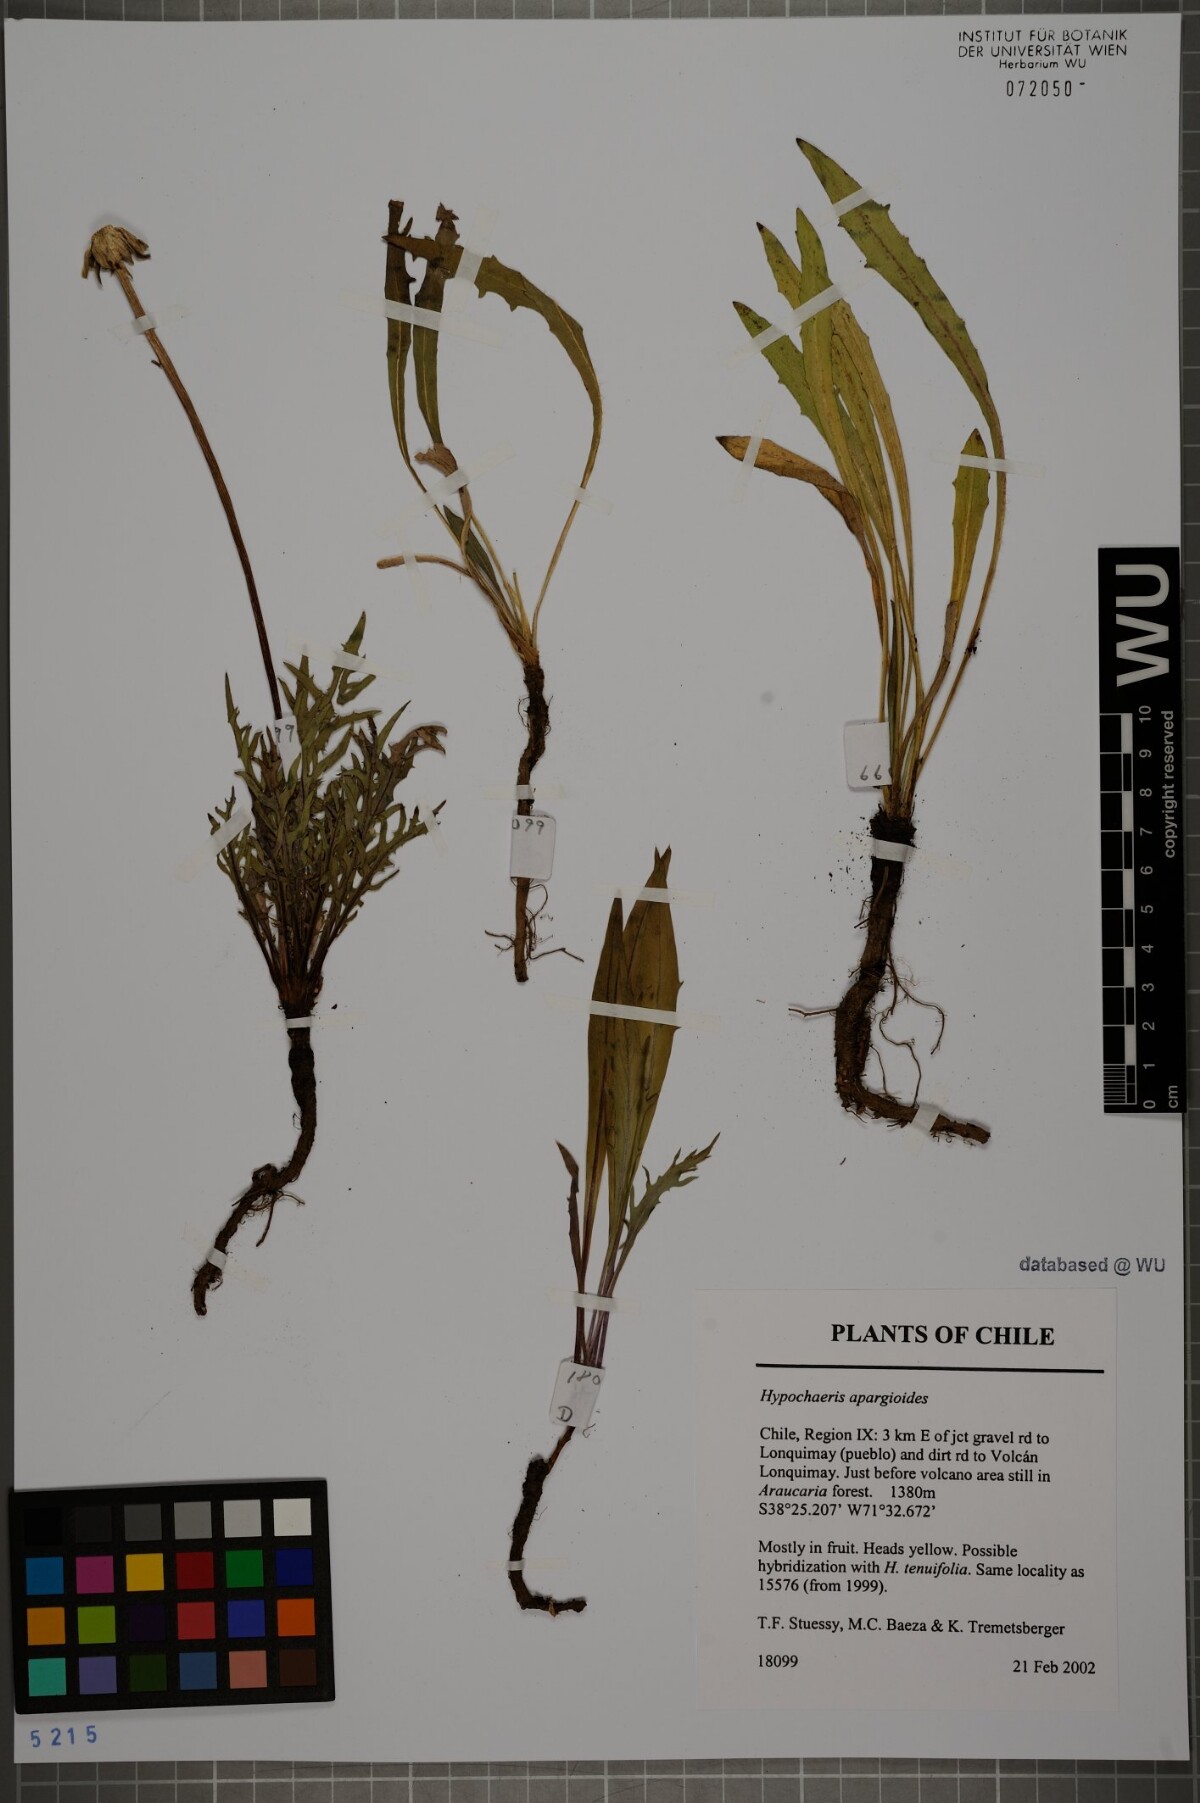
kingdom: Plantae
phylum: Tracheophyta
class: Magnoliopsida
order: Asterales
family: Asteraceae
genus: Hypochaeris
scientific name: Hypochaeris apargioides
